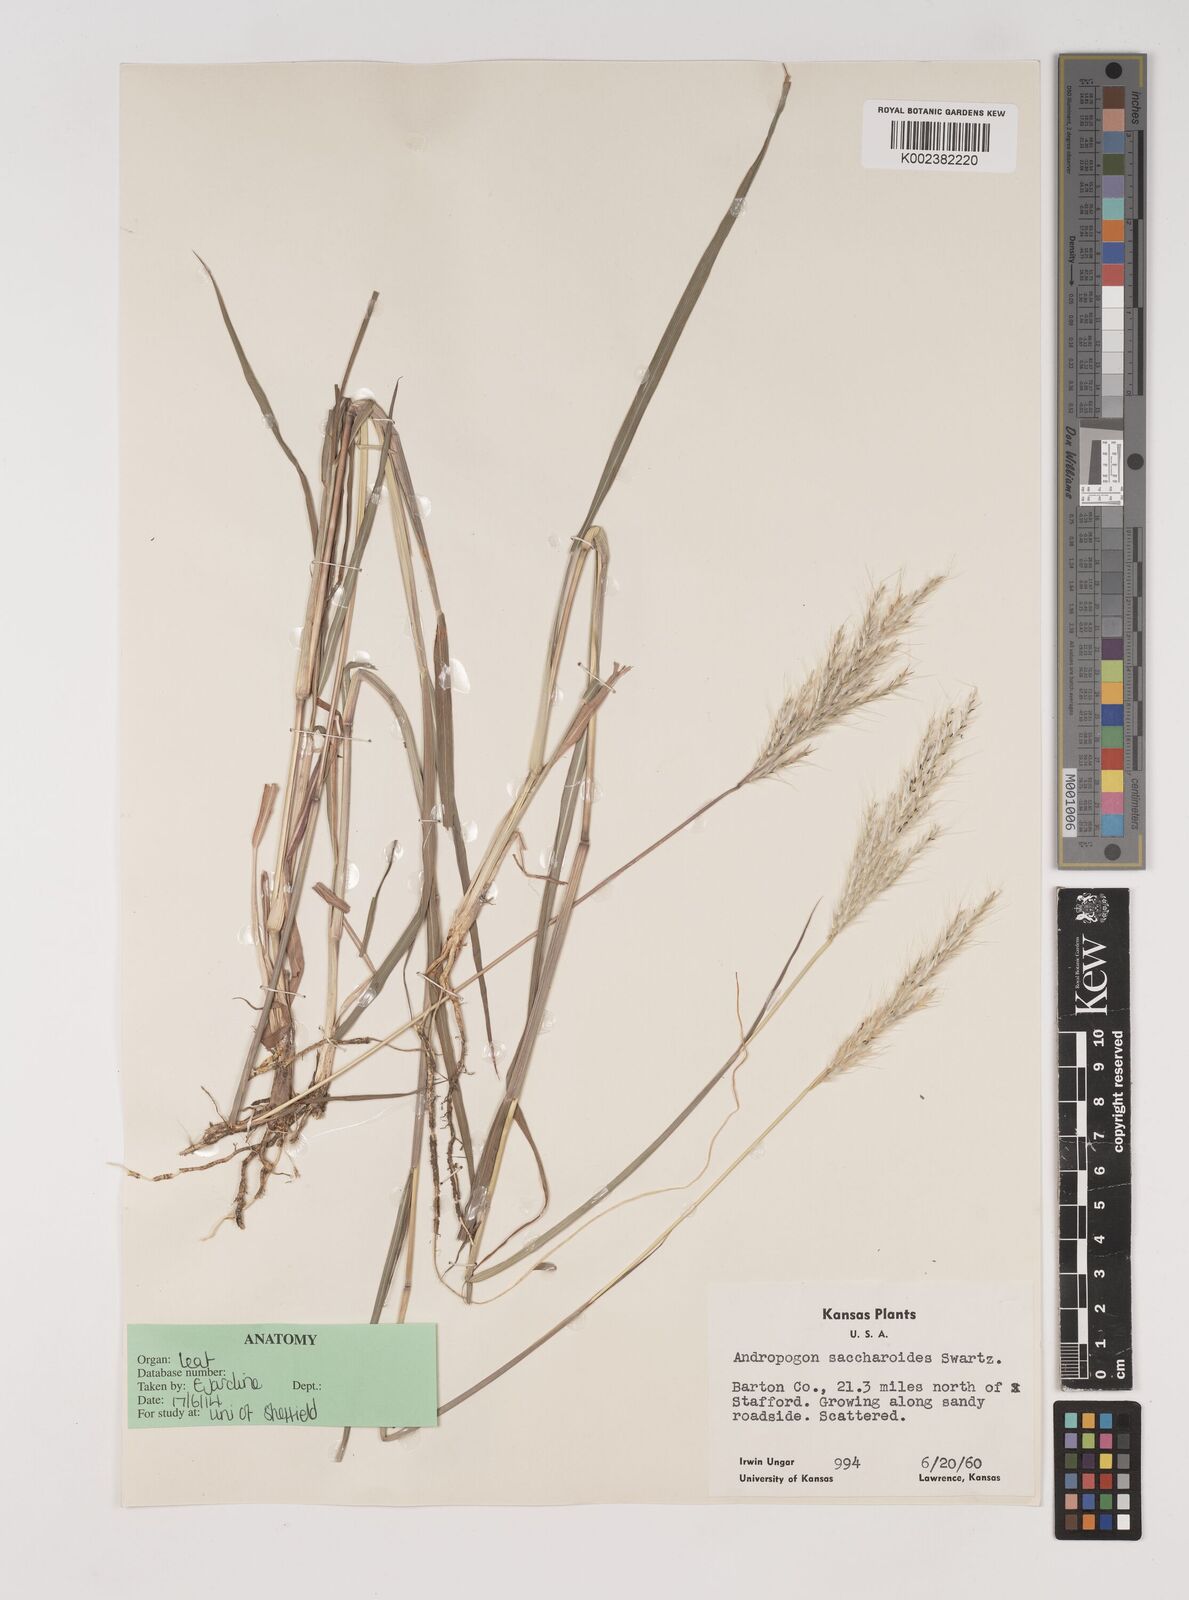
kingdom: Plantae
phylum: Tracheophyta
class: Liliopsida
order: Poales
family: Poaceae
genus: Bothriochloa
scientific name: Bothriochloa longipaniculata
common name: Longspike silver bluestem
